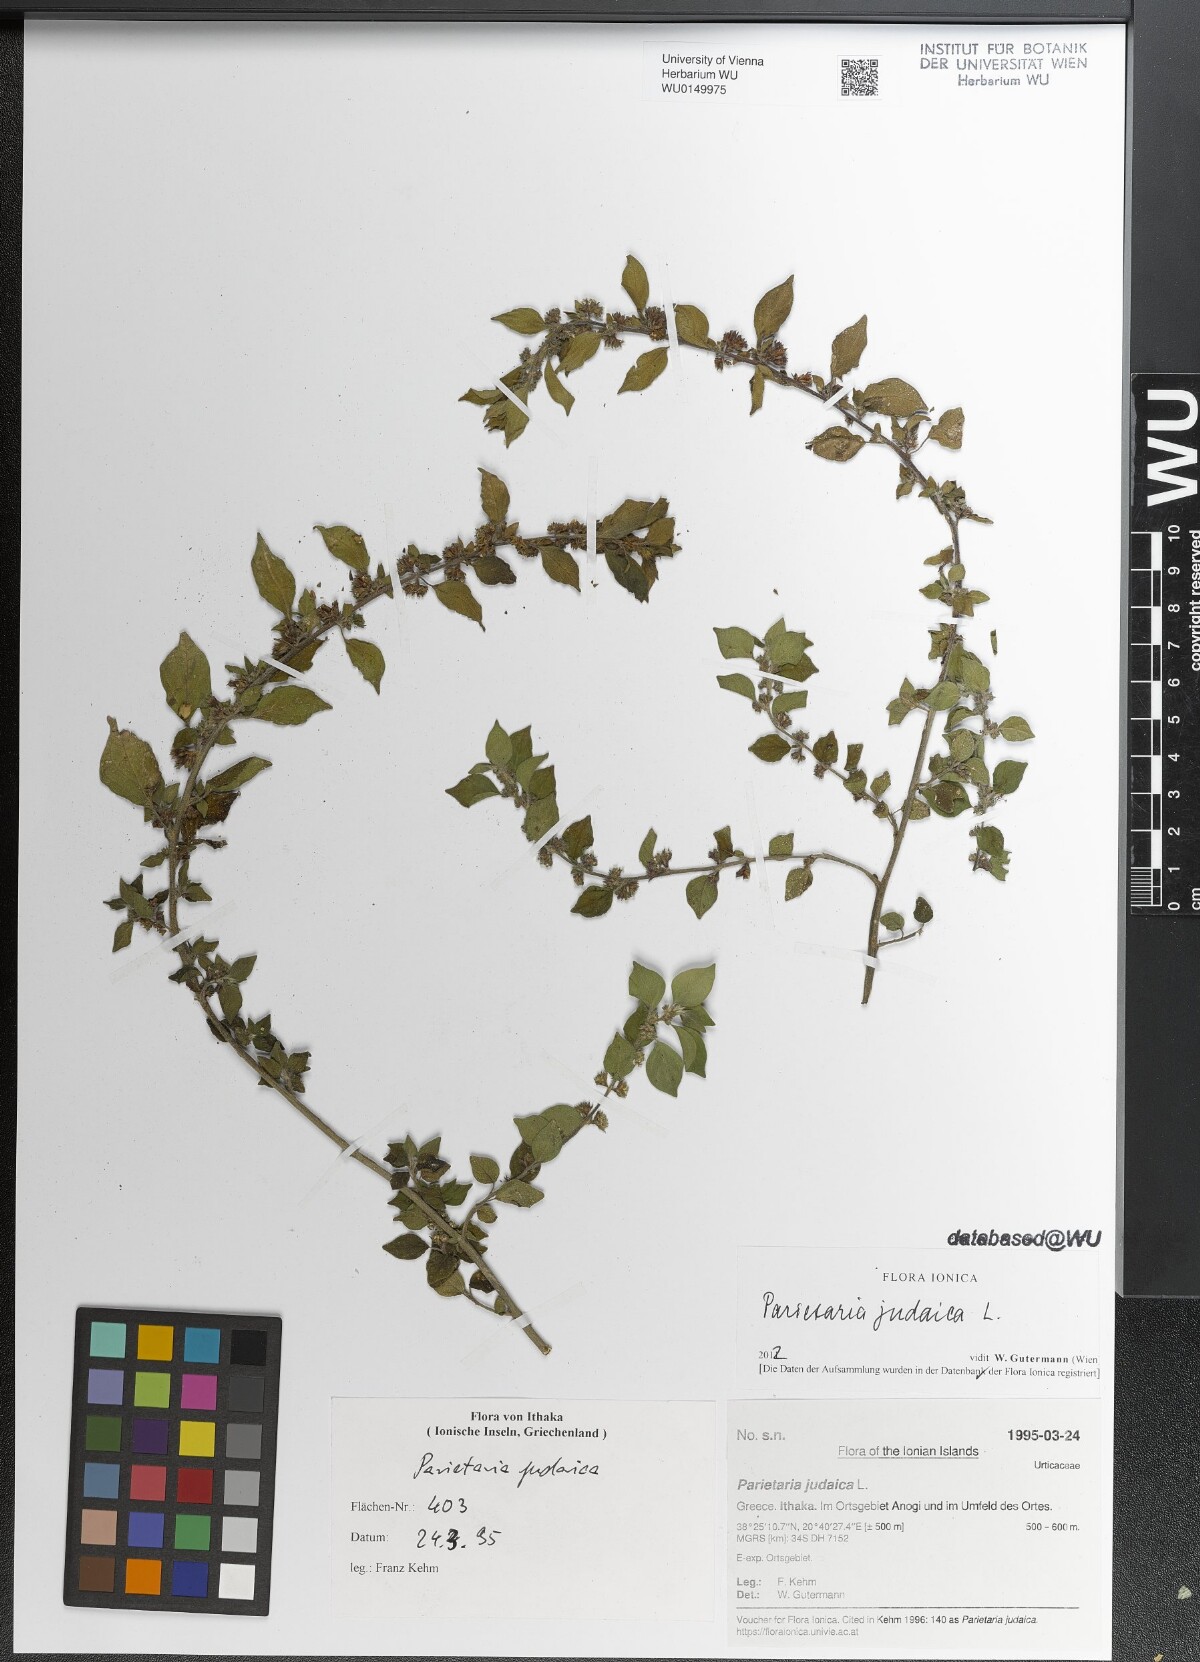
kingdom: Plantae
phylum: Tracheophyta
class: Magnoliopsida
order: Rosales
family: Urticaceae
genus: Parietaria
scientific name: Parietaria judaica
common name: Pellitory-of-the-wall
